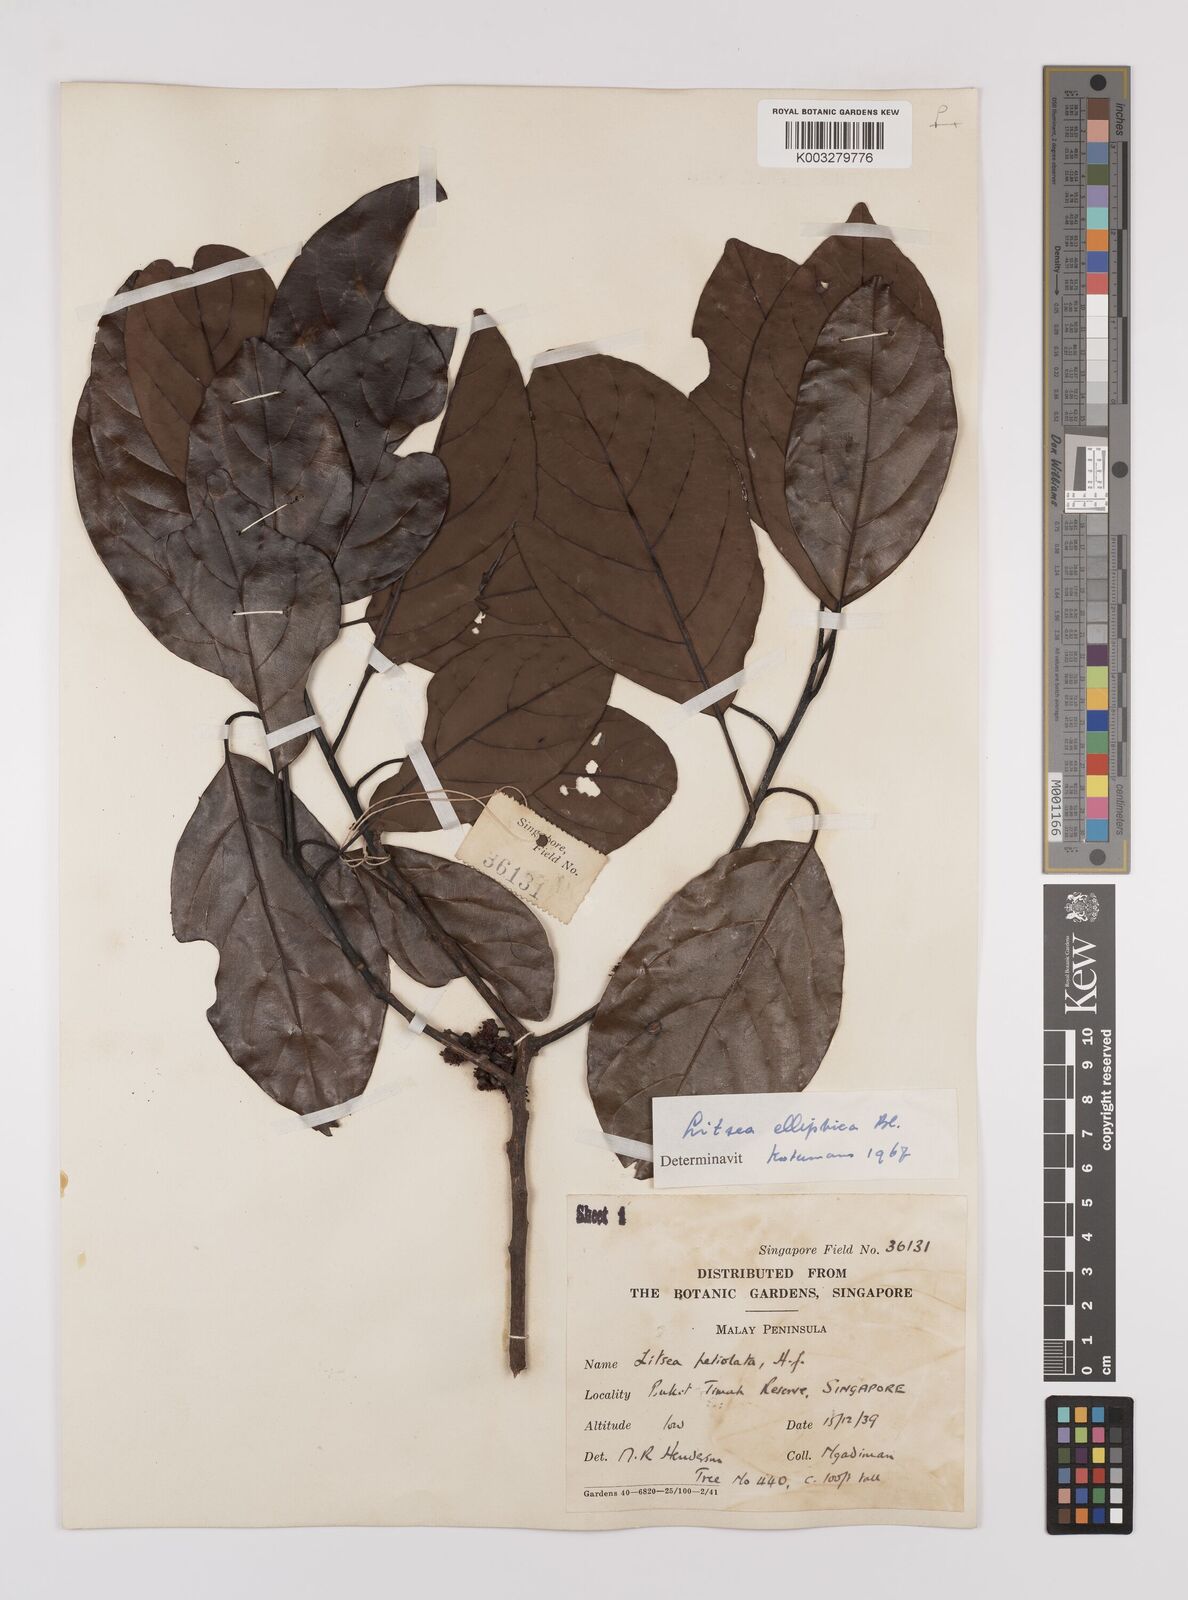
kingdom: Plantae
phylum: Tracheophyta
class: Magnoliopsida
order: Laurales
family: Lauraceae
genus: Litsea
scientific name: Litsea elliptica
